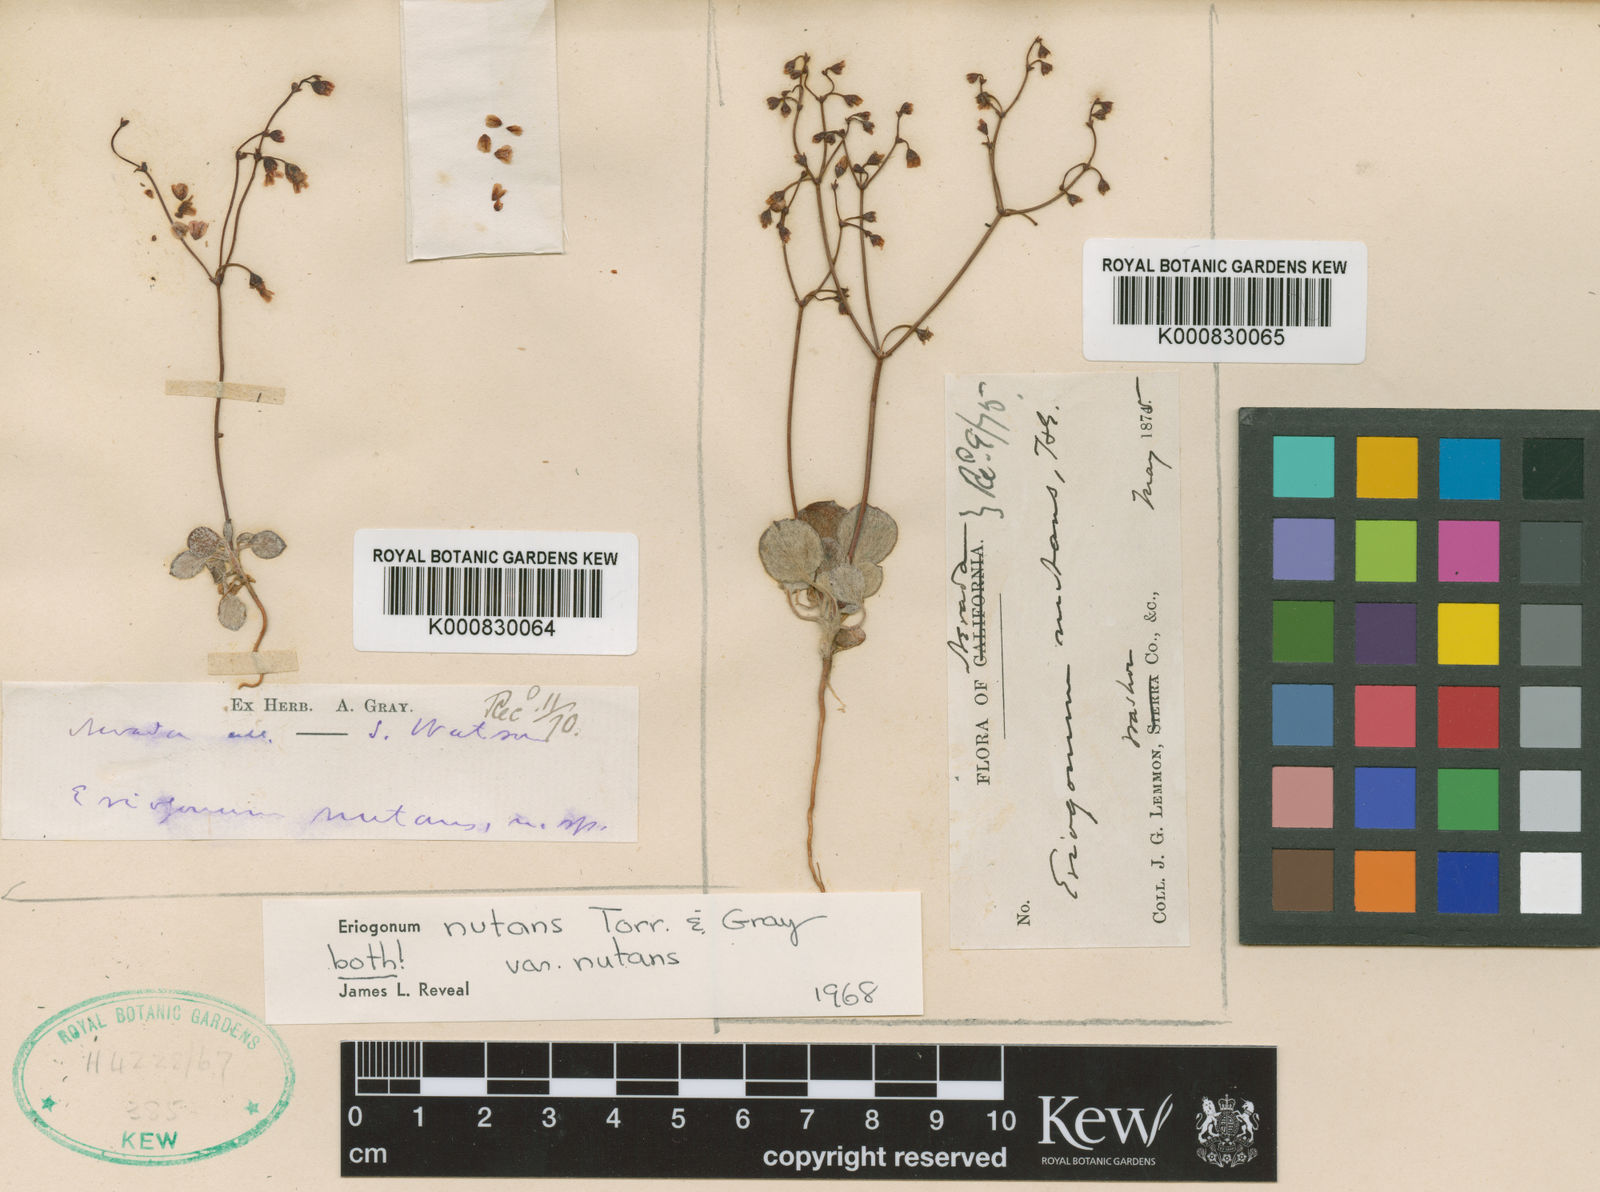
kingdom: Plantae
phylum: Tracheophyta
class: Magnoliopsida
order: Caryophyllales
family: Polygonaceae
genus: Eriogonum
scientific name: Eriogonum nutans
